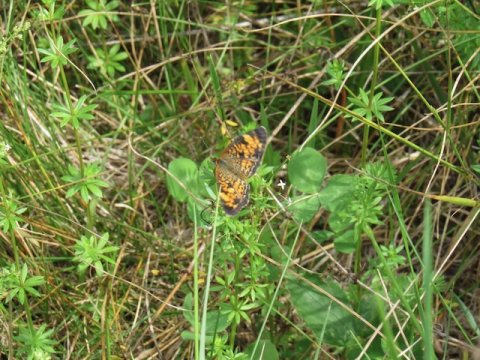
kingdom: Animalia
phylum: Arthropoda
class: Insecta
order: Lepidoptera
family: Nymphalidae
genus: Phyciodes
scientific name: Phyciodes tharos
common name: Pearl Crescent
